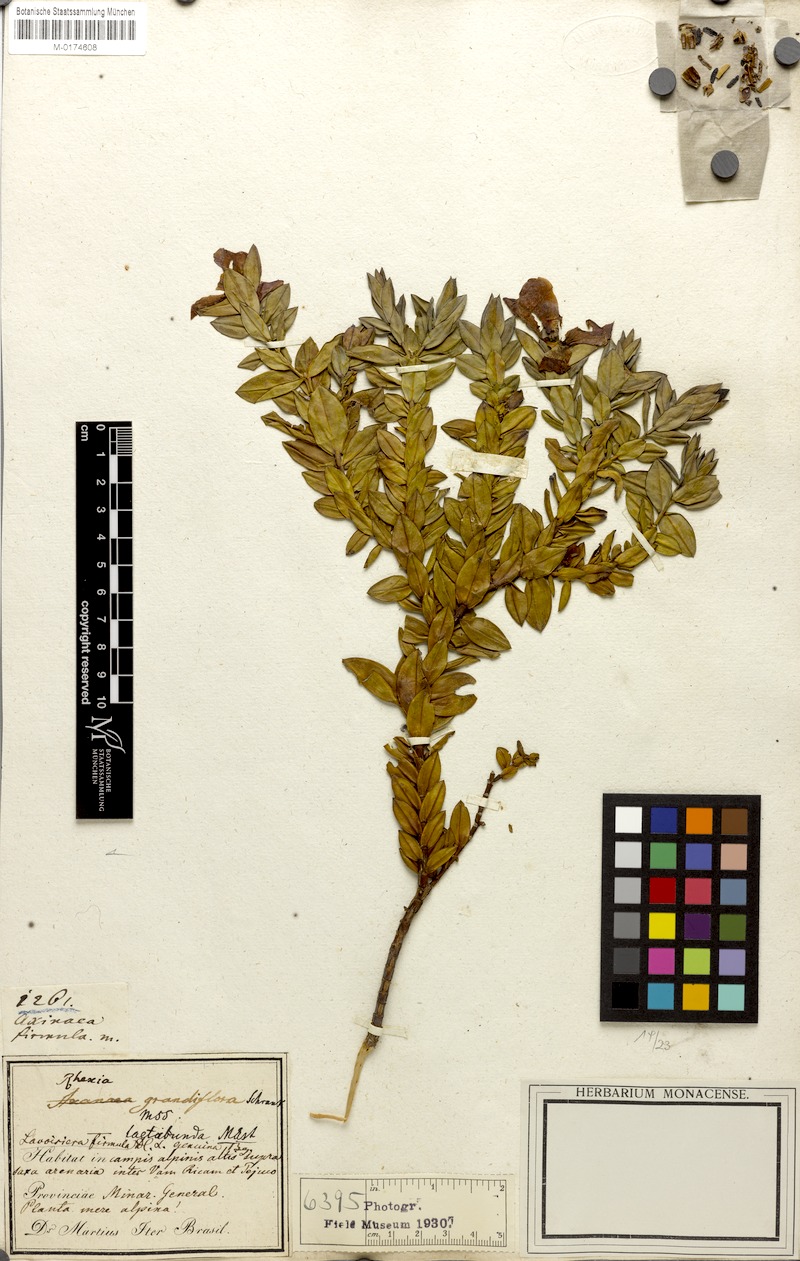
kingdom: Plantae
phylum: Tracheophyta
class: Magnoliopsida
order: Myrtales
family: Melastomataceae
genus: Microlicia
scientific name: Microlicia firmula
